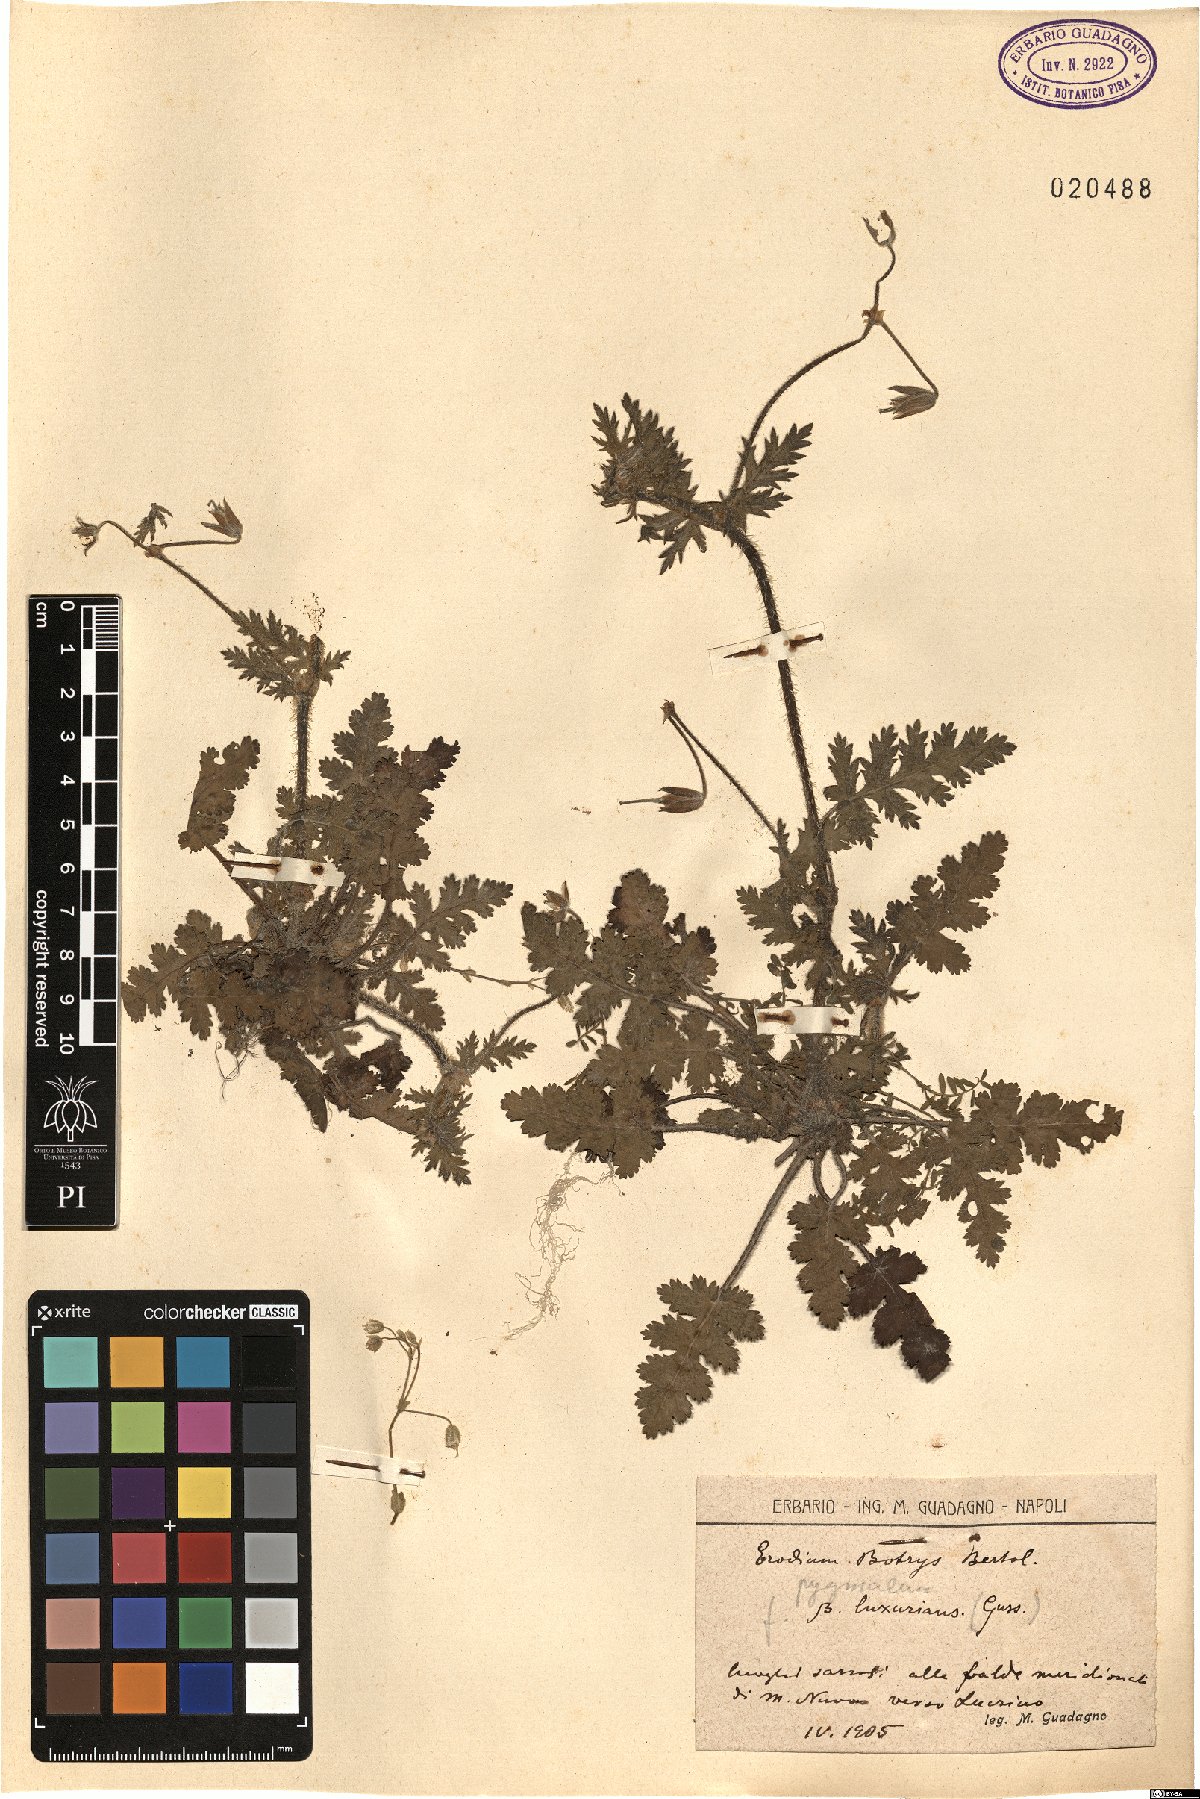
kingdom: Plantae
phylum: Tracheophyta
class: Magnoliopsida
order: Geraniales
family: Geraniaceae
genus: Erodium
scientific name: Erodium botrys
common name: Mediterranean stork's-bill
